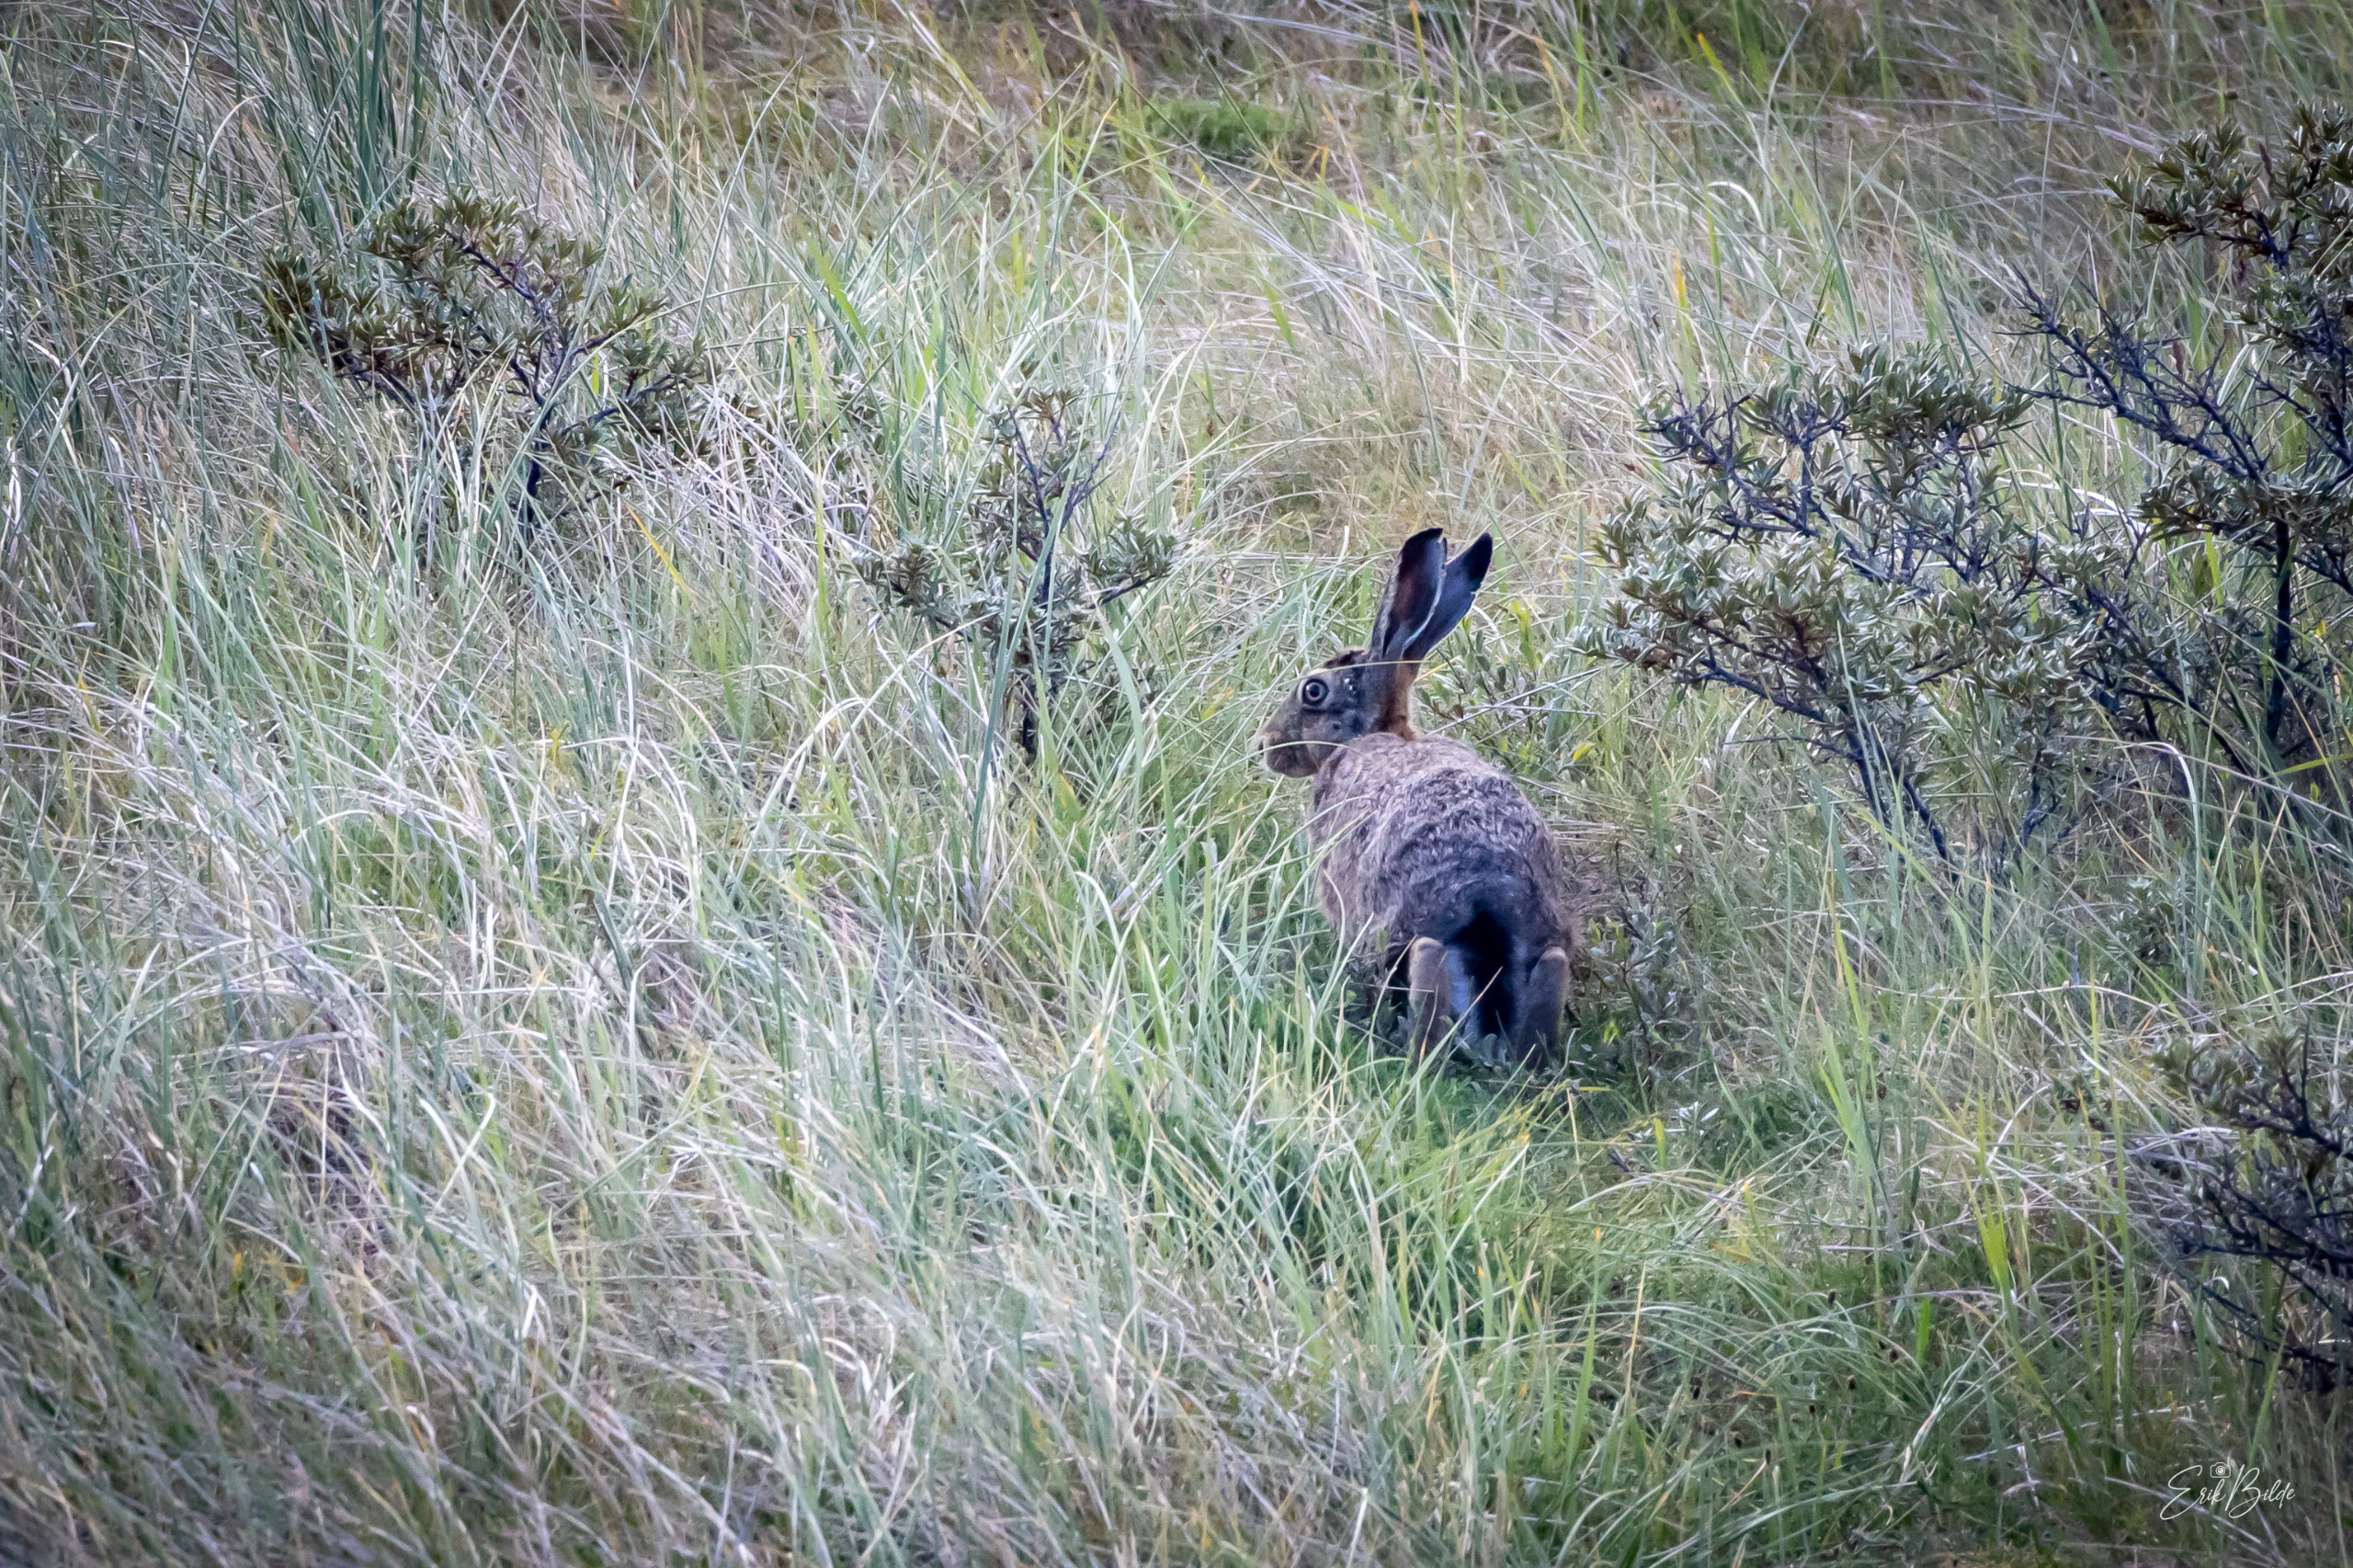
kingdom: Animalia
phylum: Chordata
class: Mammalia
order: Lagomorpha
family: Leporidae
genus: Lepus
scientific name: Lepus europaeus
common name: Hare
